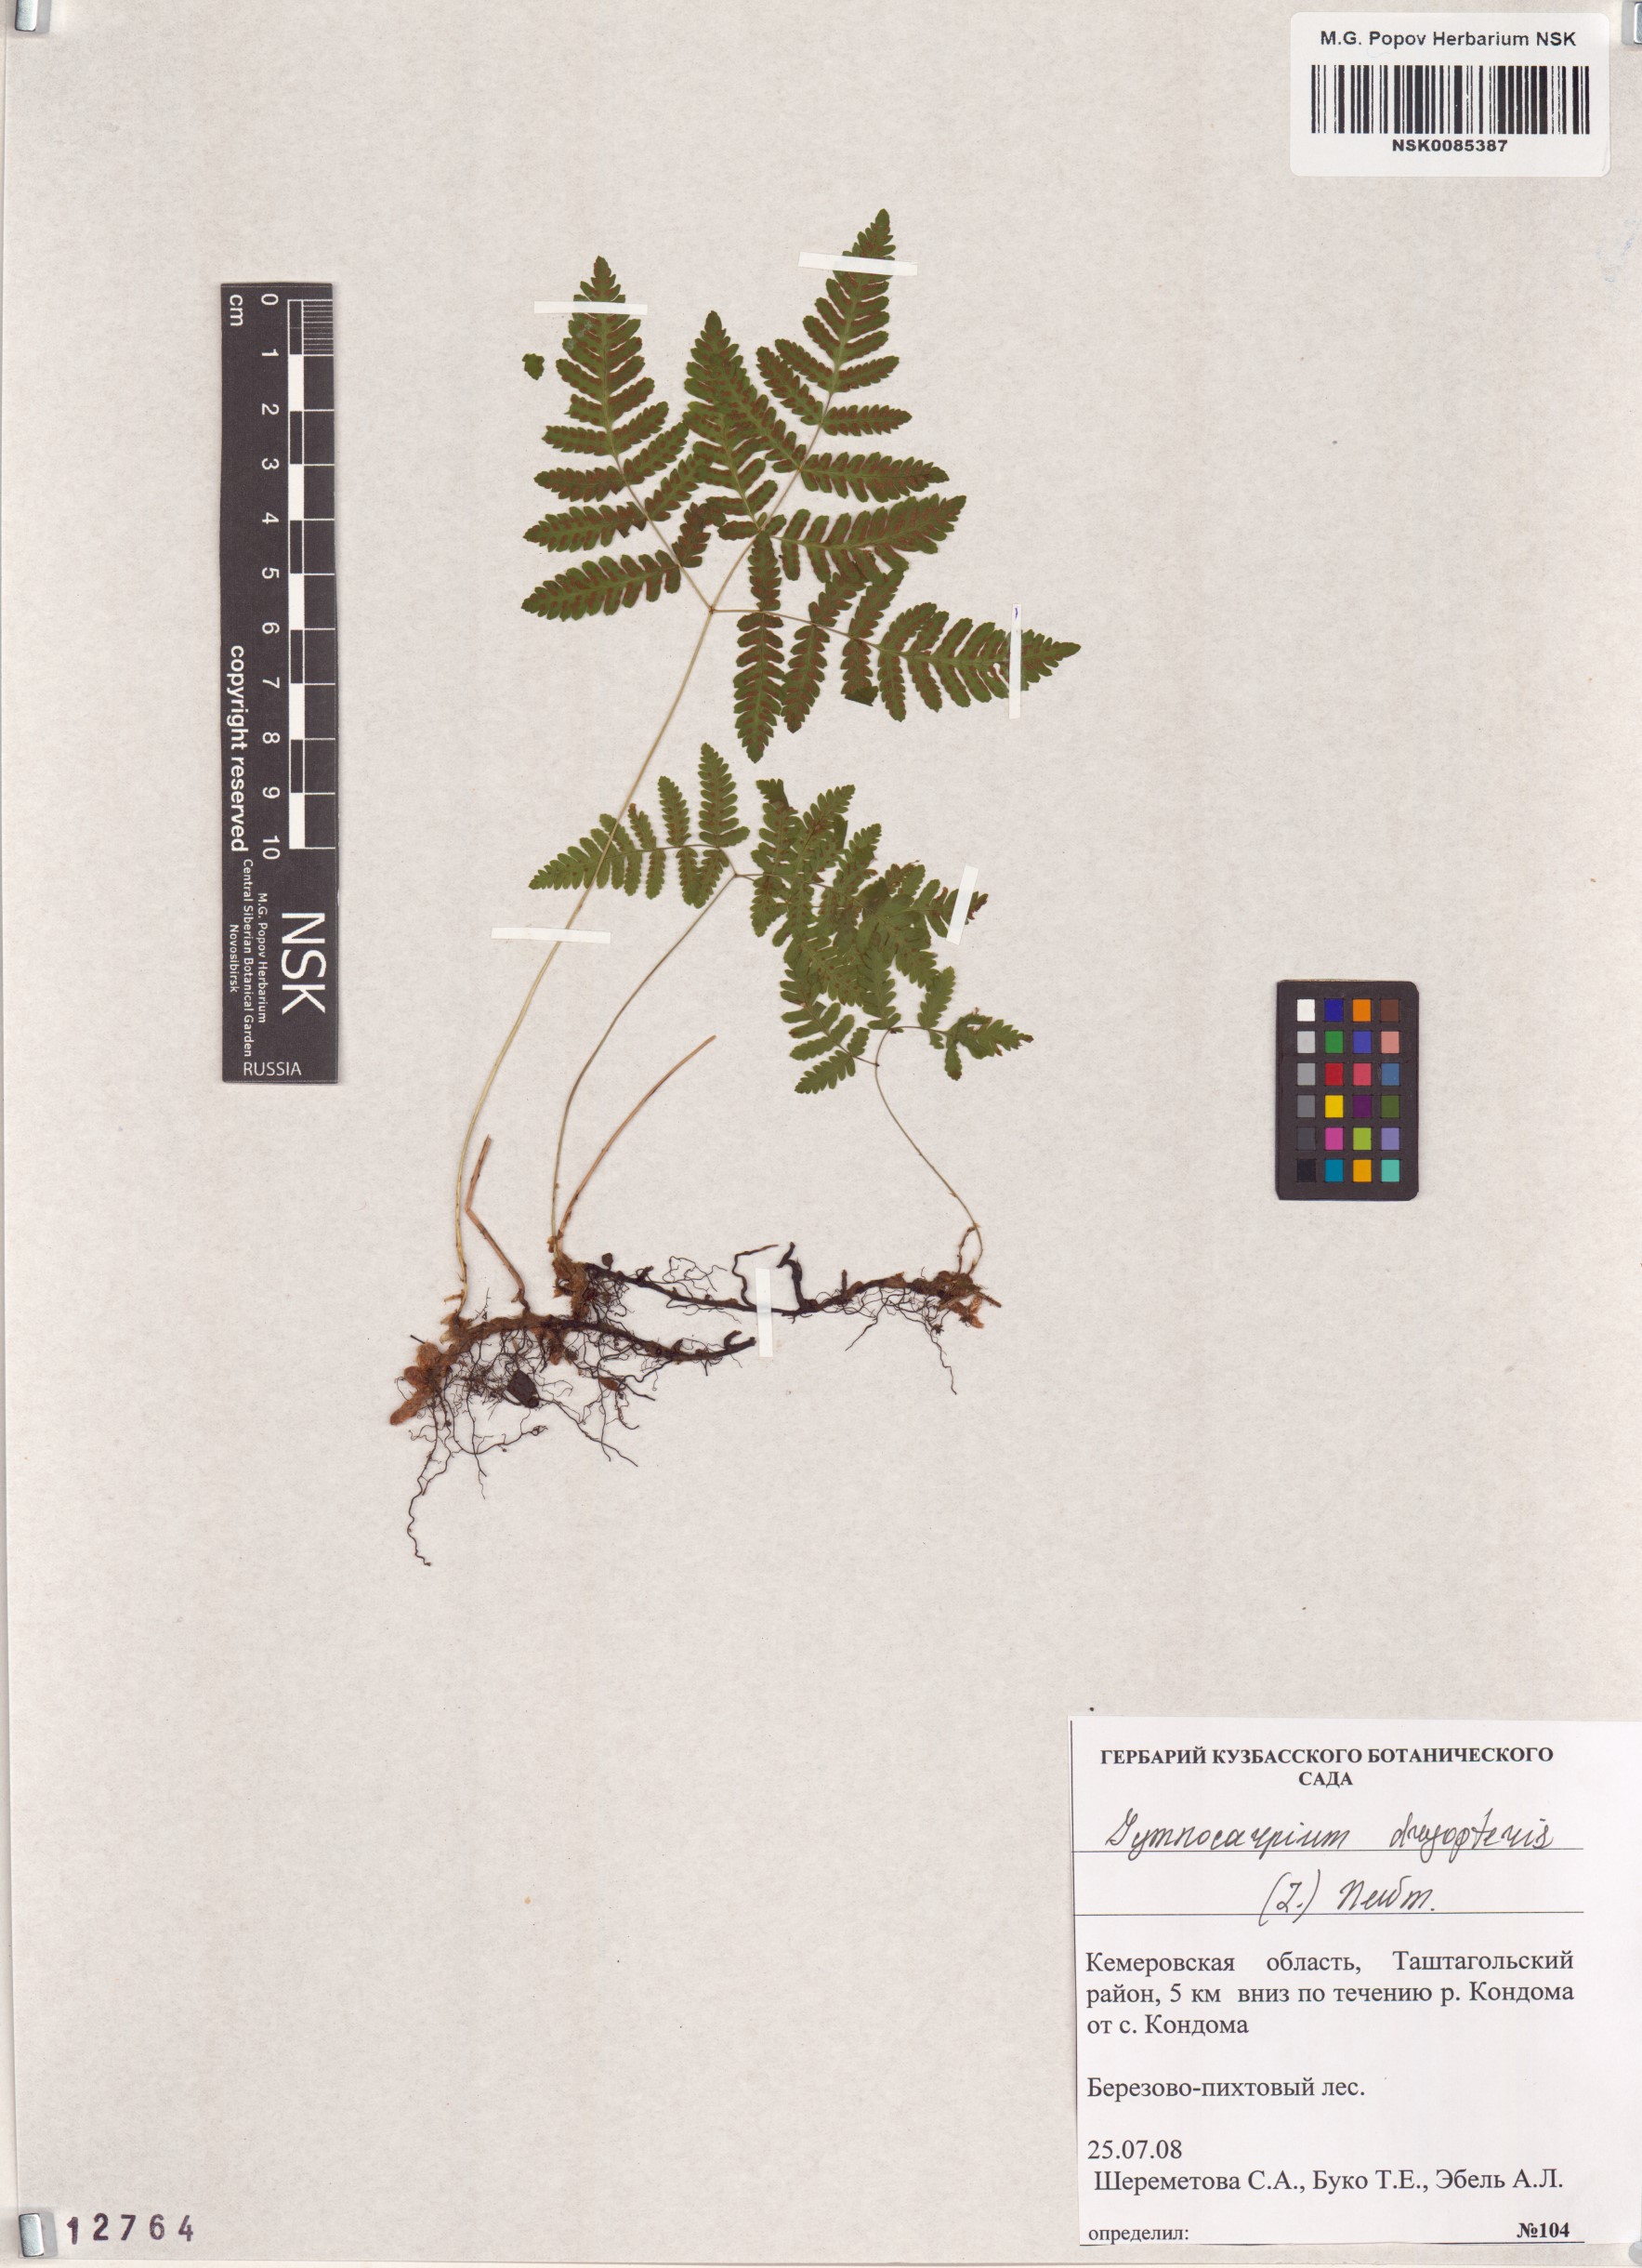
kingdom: Plantae
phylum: Tracheophyta
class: Polypodiopsida
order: Polypodiales
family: Cystopteridaceae
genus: Gymnocarpium
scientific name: Gymnocarpium dryopteris
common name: Oak fern
